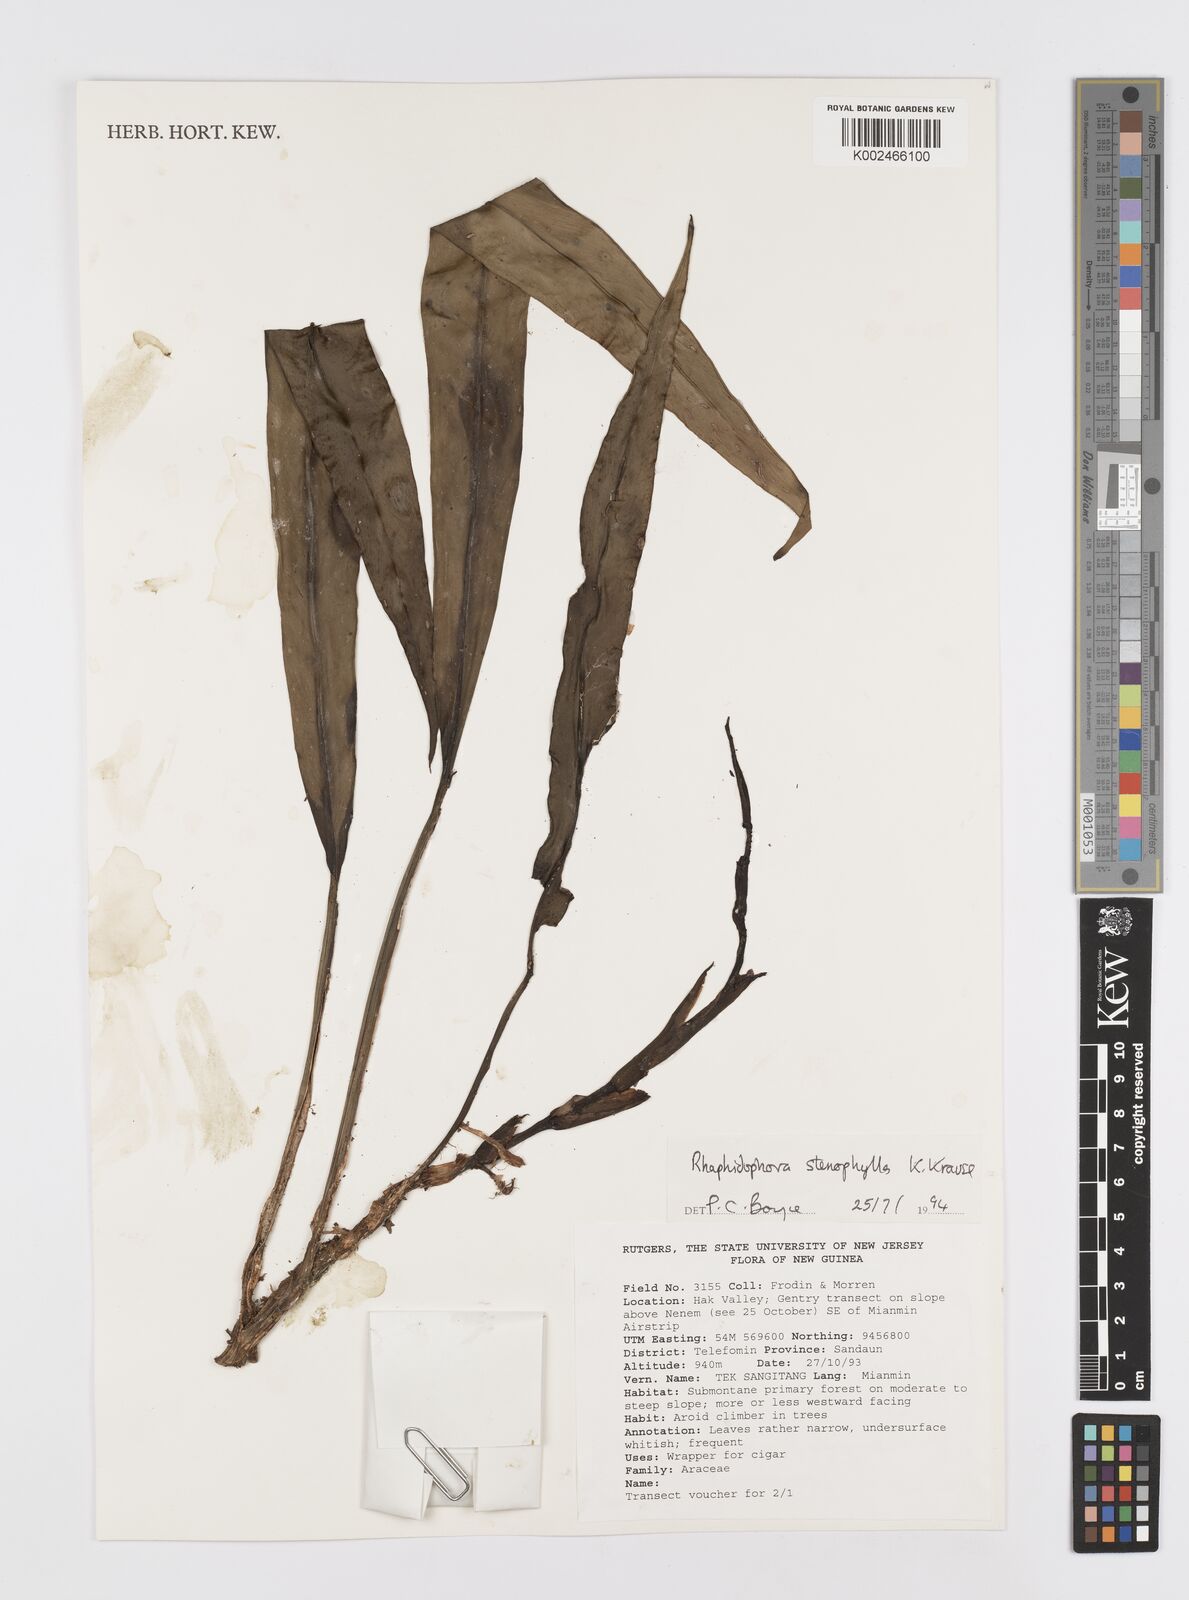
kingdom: Plantae
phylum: Tracheophyta
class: Liliopsida
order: Alismatales
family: Araceae
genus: Rhaphidophora
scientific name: Rhaphidophora stenophylla
